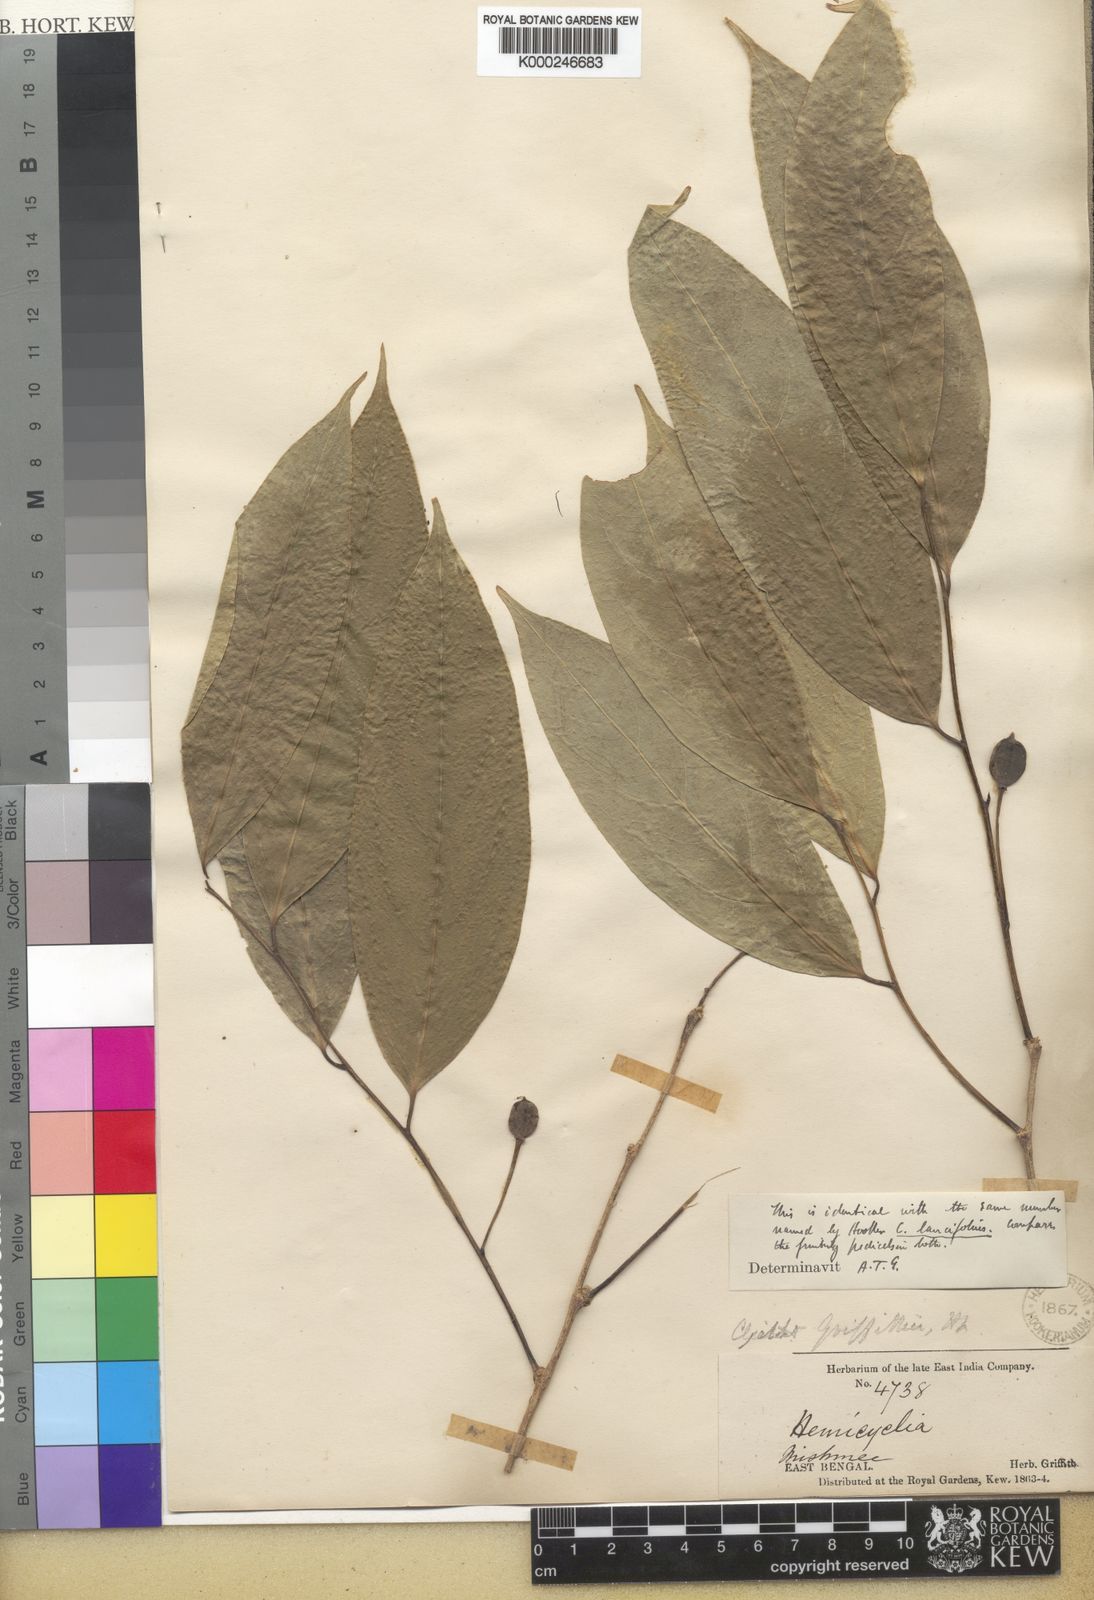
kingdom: Plantae
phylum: Tracheophyta
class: Magnoliopsida
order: Malpighiales
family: Putranjivaceae
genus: Drypetes
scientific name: Drypetes indica
